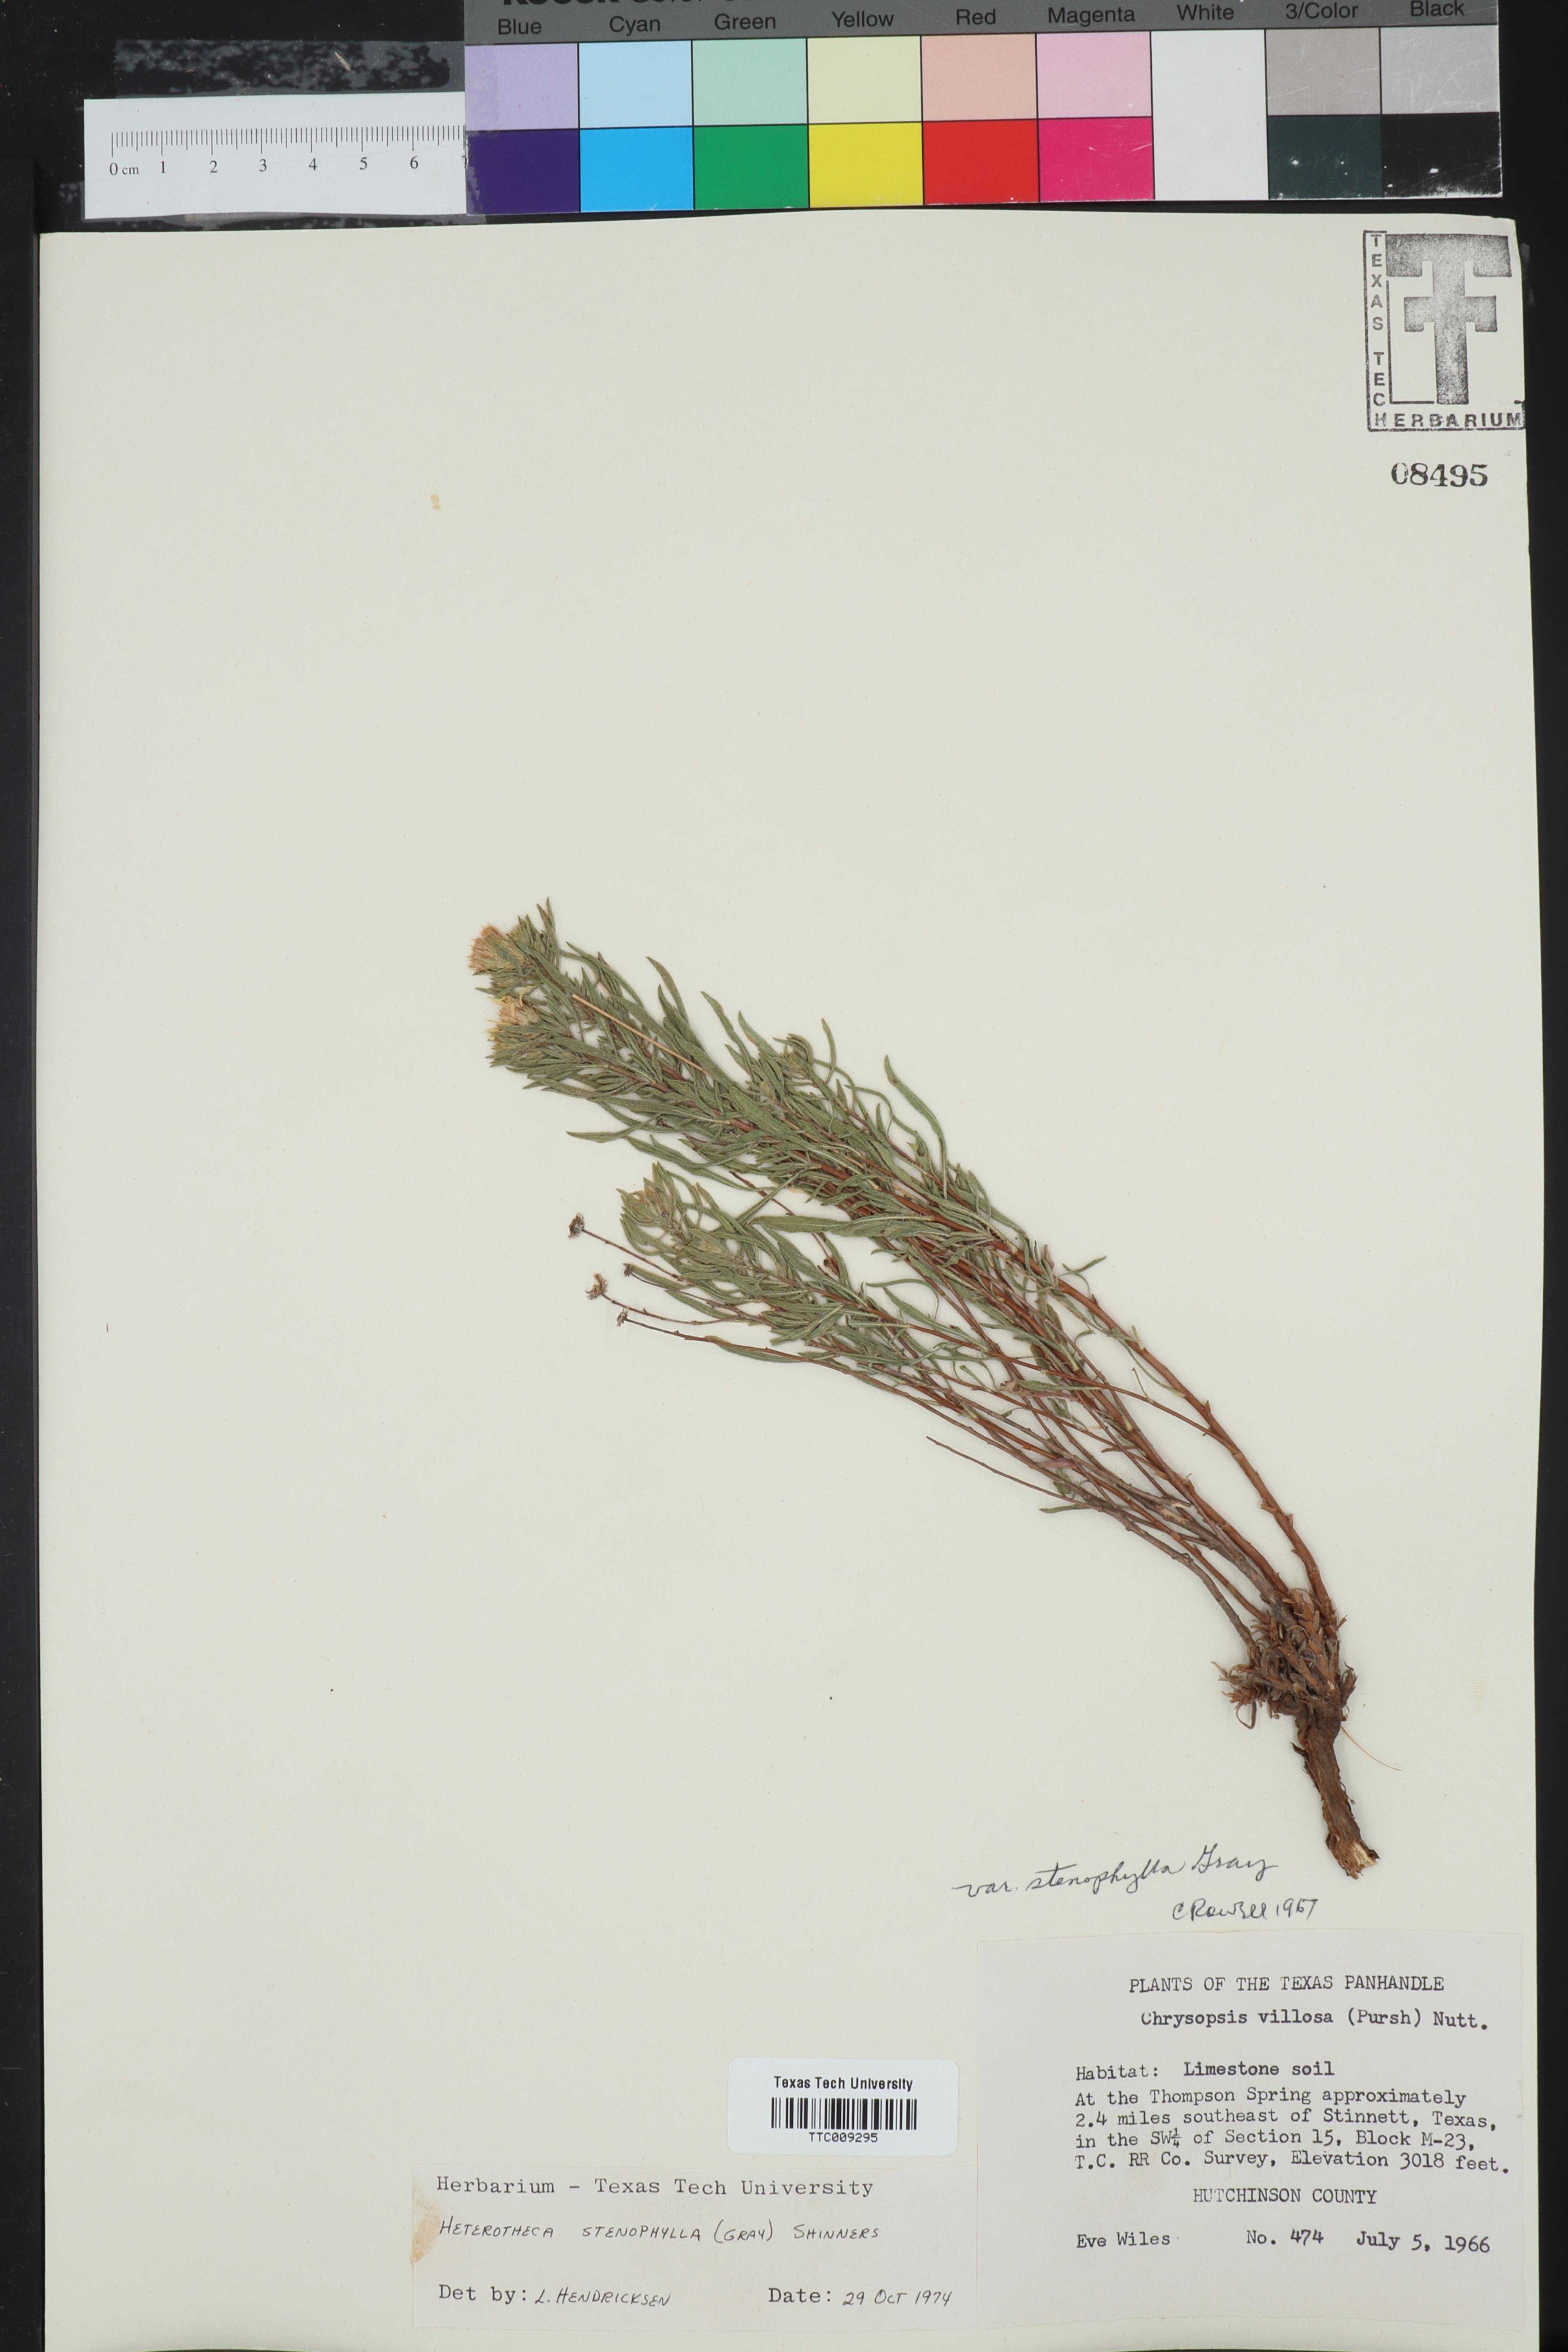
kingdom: Plantae
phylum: Tracheophyta
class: Magnoliopsida
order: Asterales
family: Asteraceae
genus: Heterotheca
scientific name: Heterotheca stenophylla
